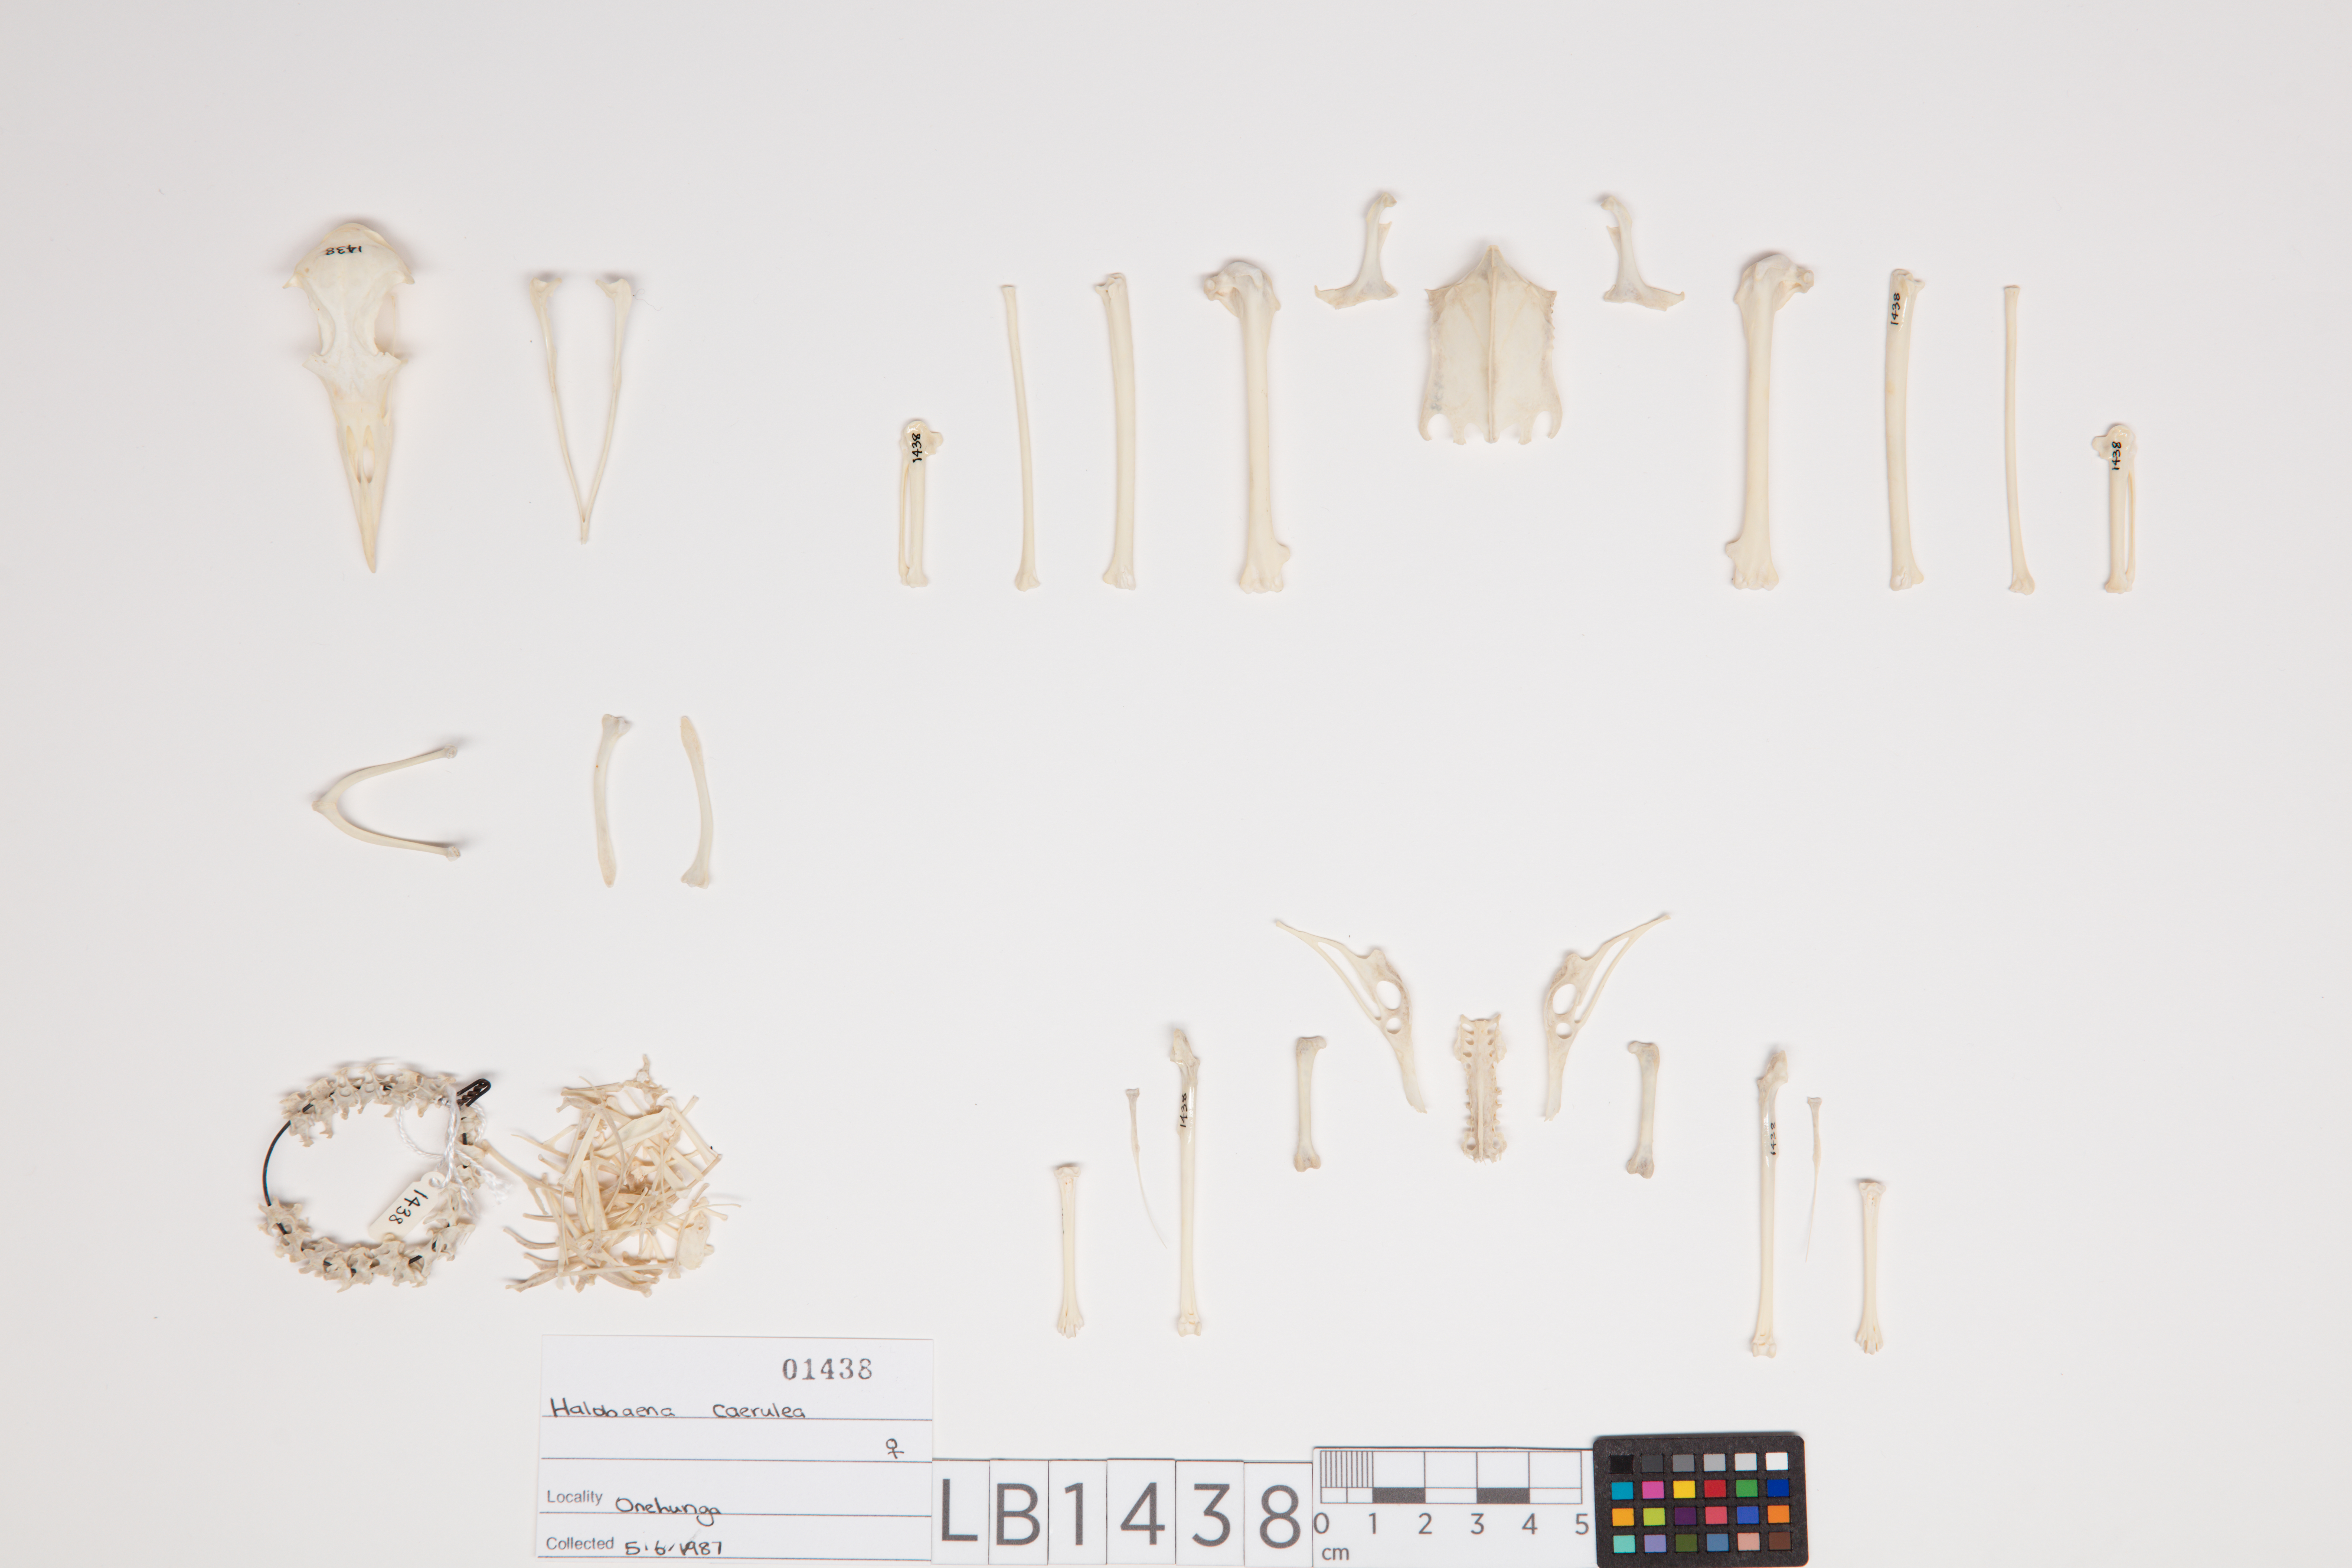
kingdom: Animalia
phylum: Chordata
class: Aves
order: Procellariiformes
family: Procellariidae
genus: Halobaena
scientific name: Halobaena caerulea
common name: Blue petrel
